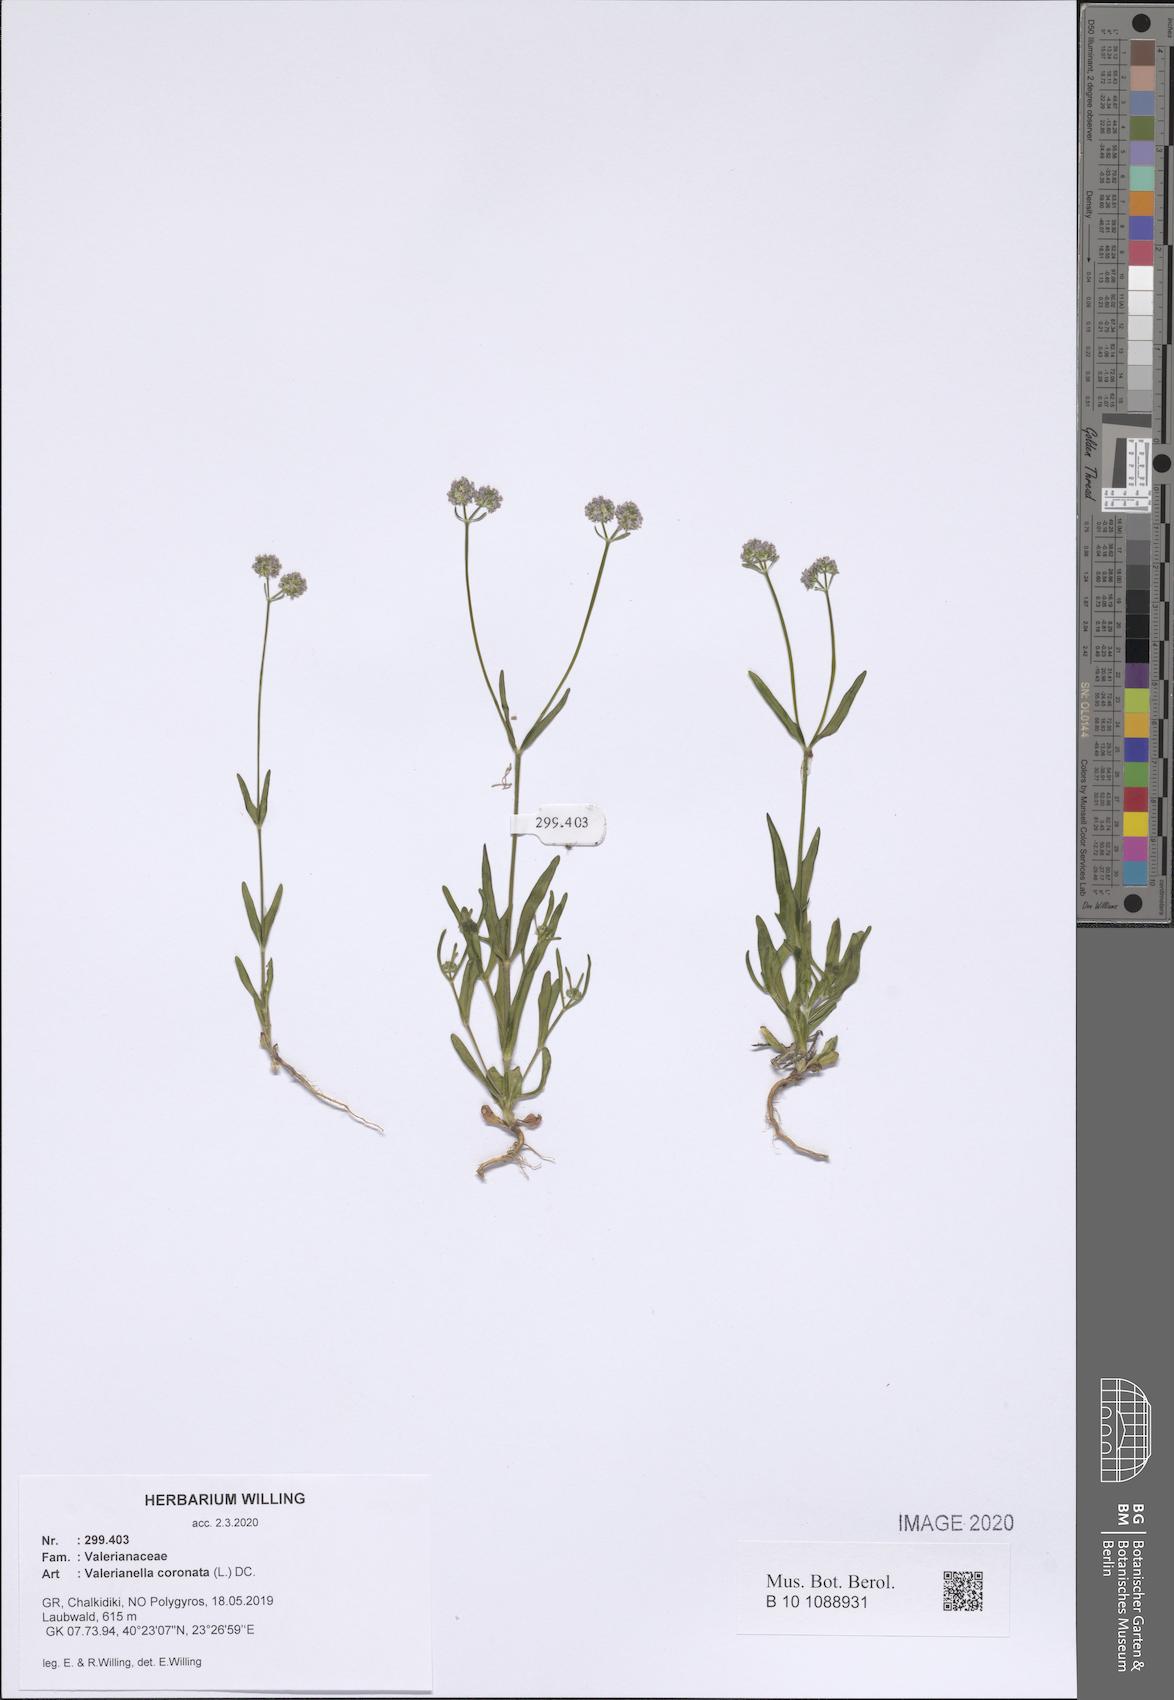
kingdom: Plantae
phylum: Tracheophyta
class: Magnoliopsida
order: Dipsacales
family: Caprifoliaceae
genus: Valerianella
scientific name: Valerianella coronata
